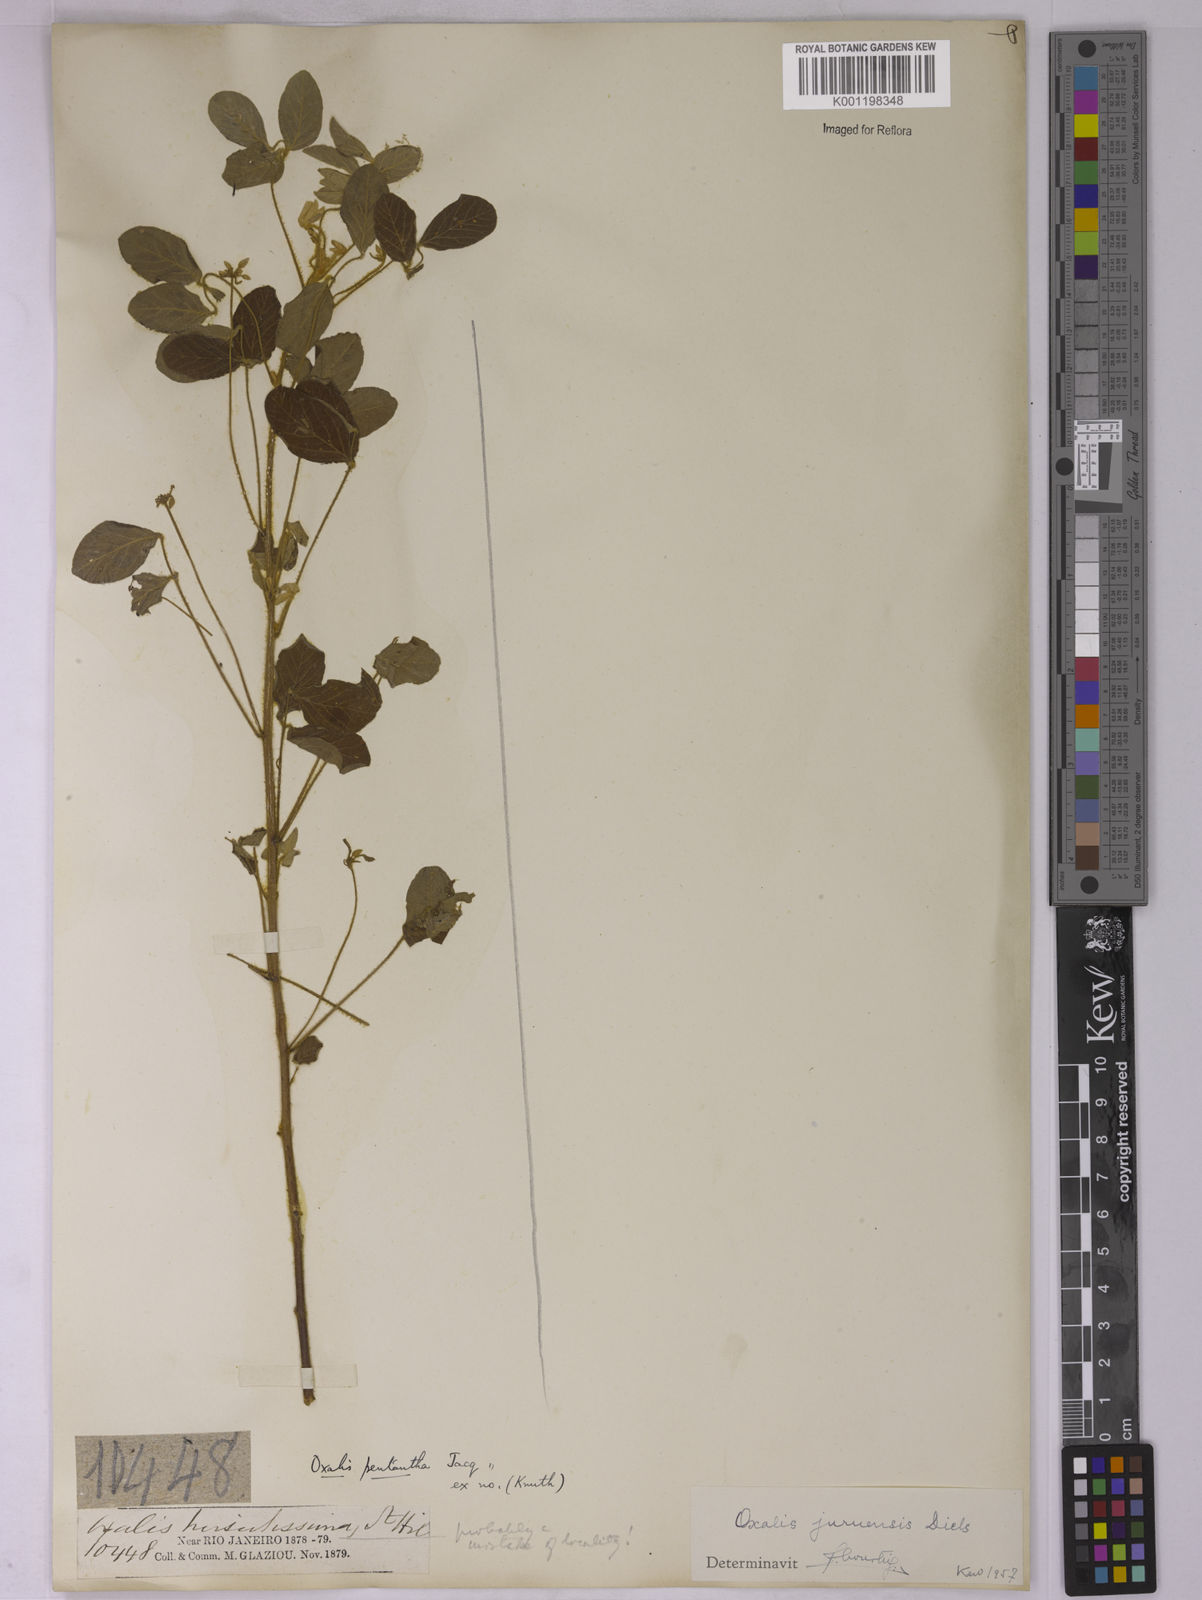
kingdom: Plantae
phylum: Tracheophyta
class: Magnoliopsida
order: Oxalidales
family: Oxalidaceae
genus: Oxalis
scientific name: Oxalis juruensis
